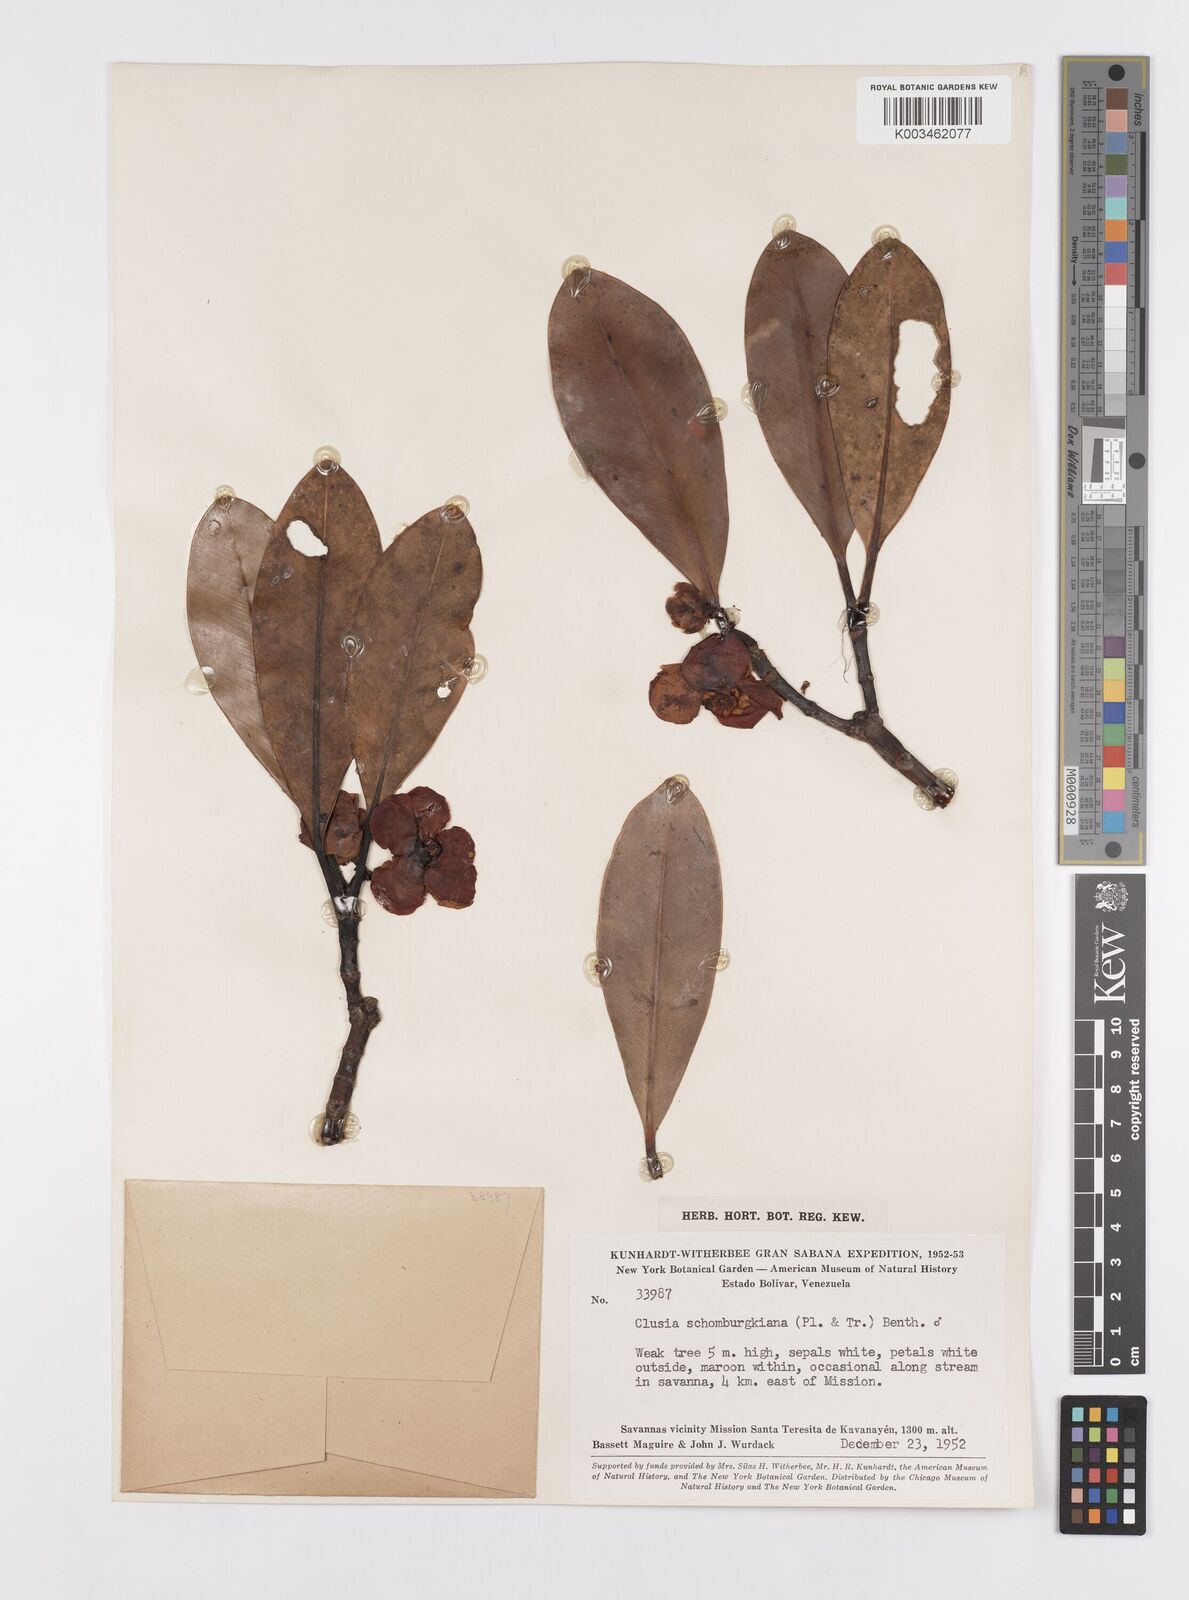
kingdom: Plantae
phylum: Tracheophyta
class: Magnoliopsida
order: Malpighiales
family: Clusiaceae
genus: Clusia
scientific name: Clusia schomburgkiana
